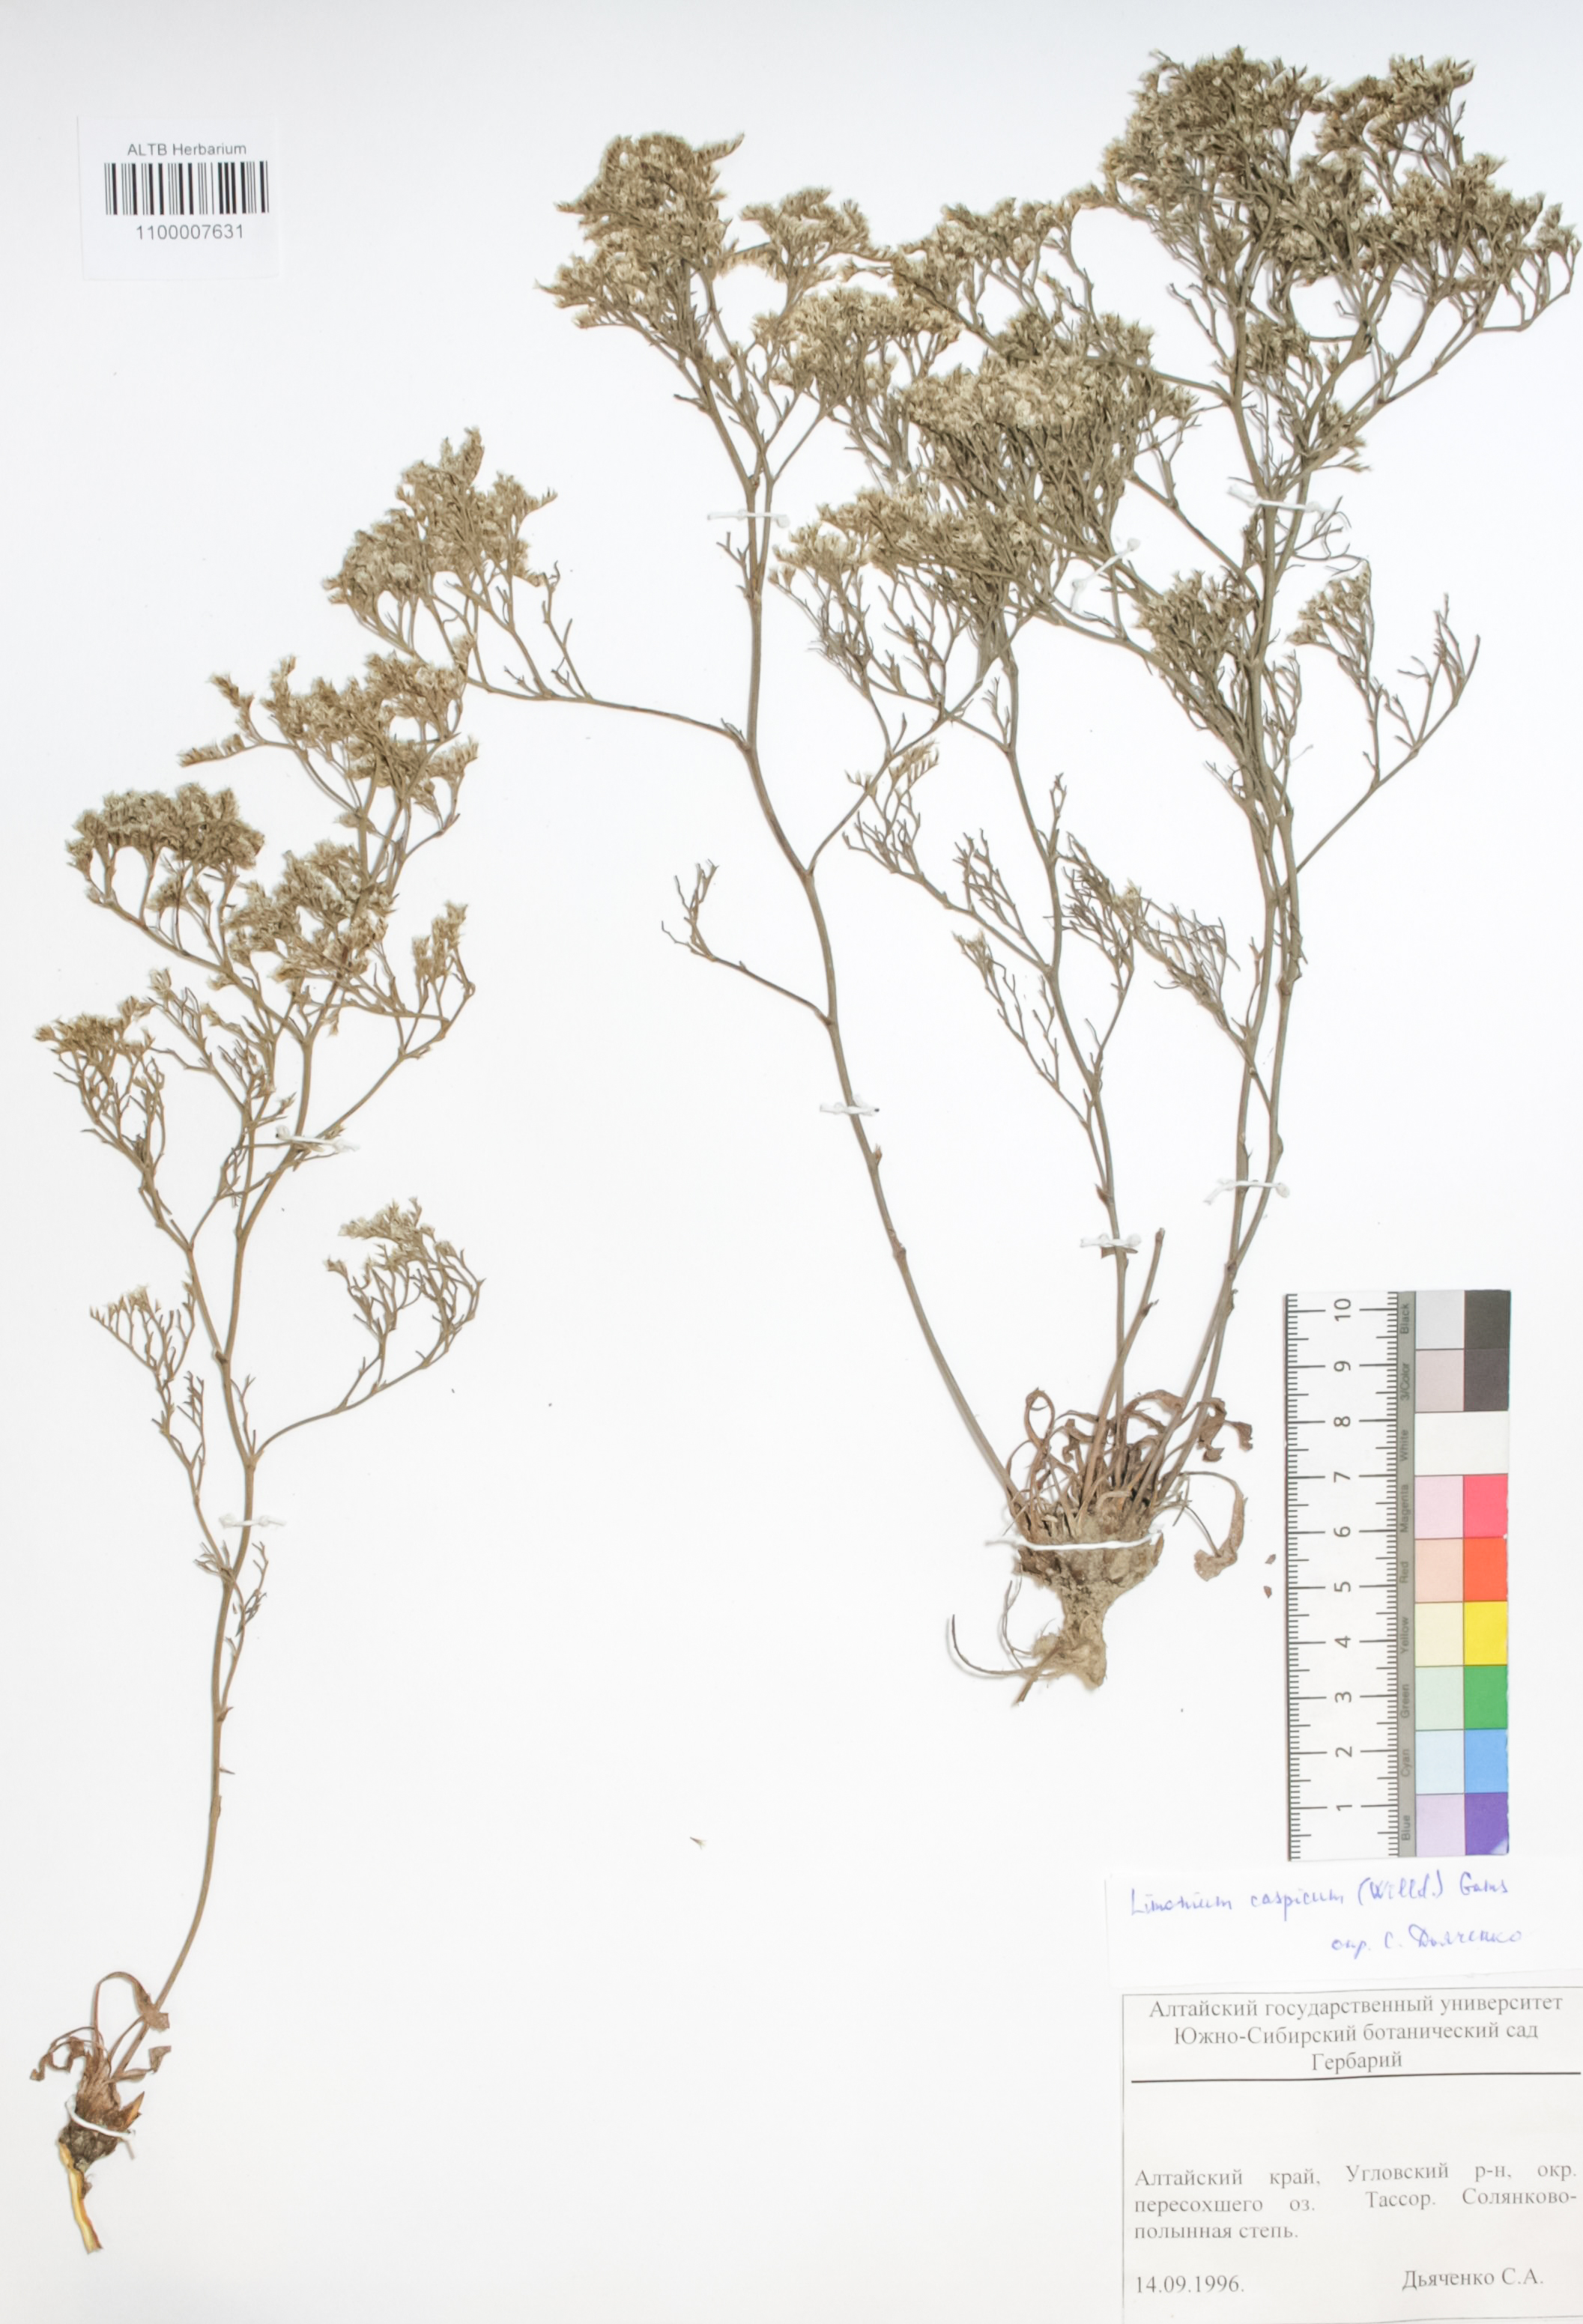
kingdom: Plantae
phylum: Tracheophyta
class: Magnoliopsida
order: Caryophyllales
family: Plumbaginaceae
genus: Limonium
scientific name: Limonium bellidifolium
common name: Matted sea-lavender
